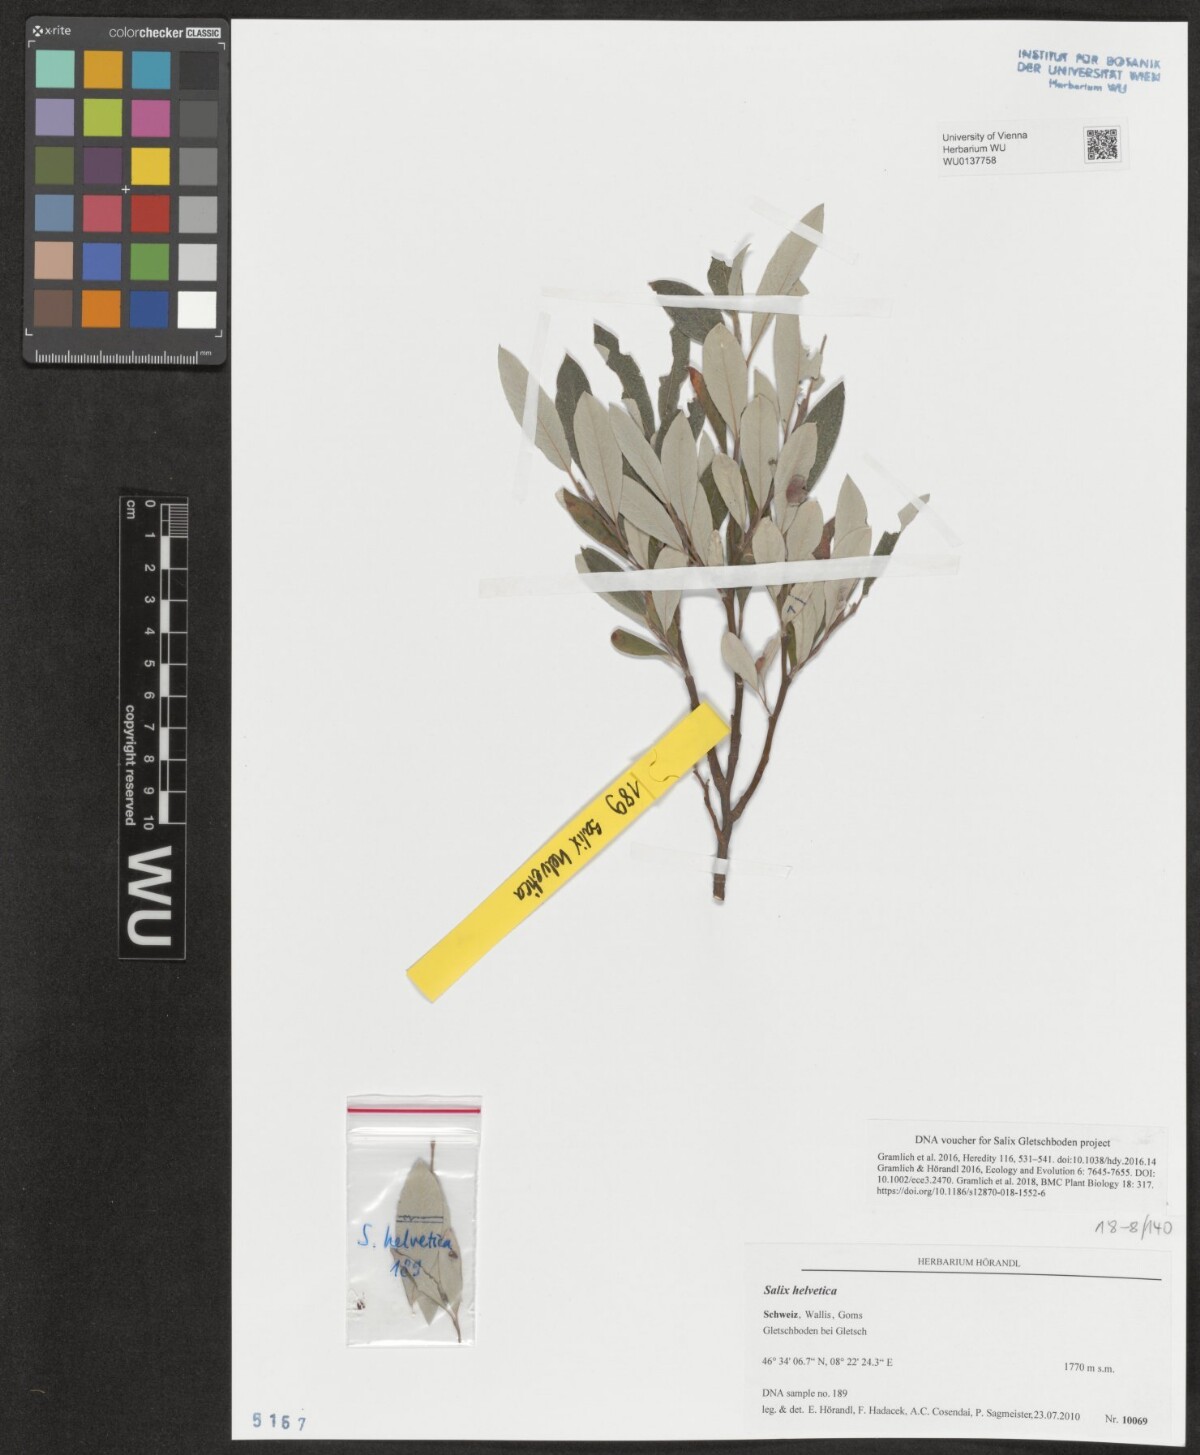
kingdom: Plantae
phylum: Tracheophyta
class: Magnoliopsida
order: Malpighiales
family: Salicaceae
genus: Salix
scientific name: Salix helvetica
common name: Swiss willow
